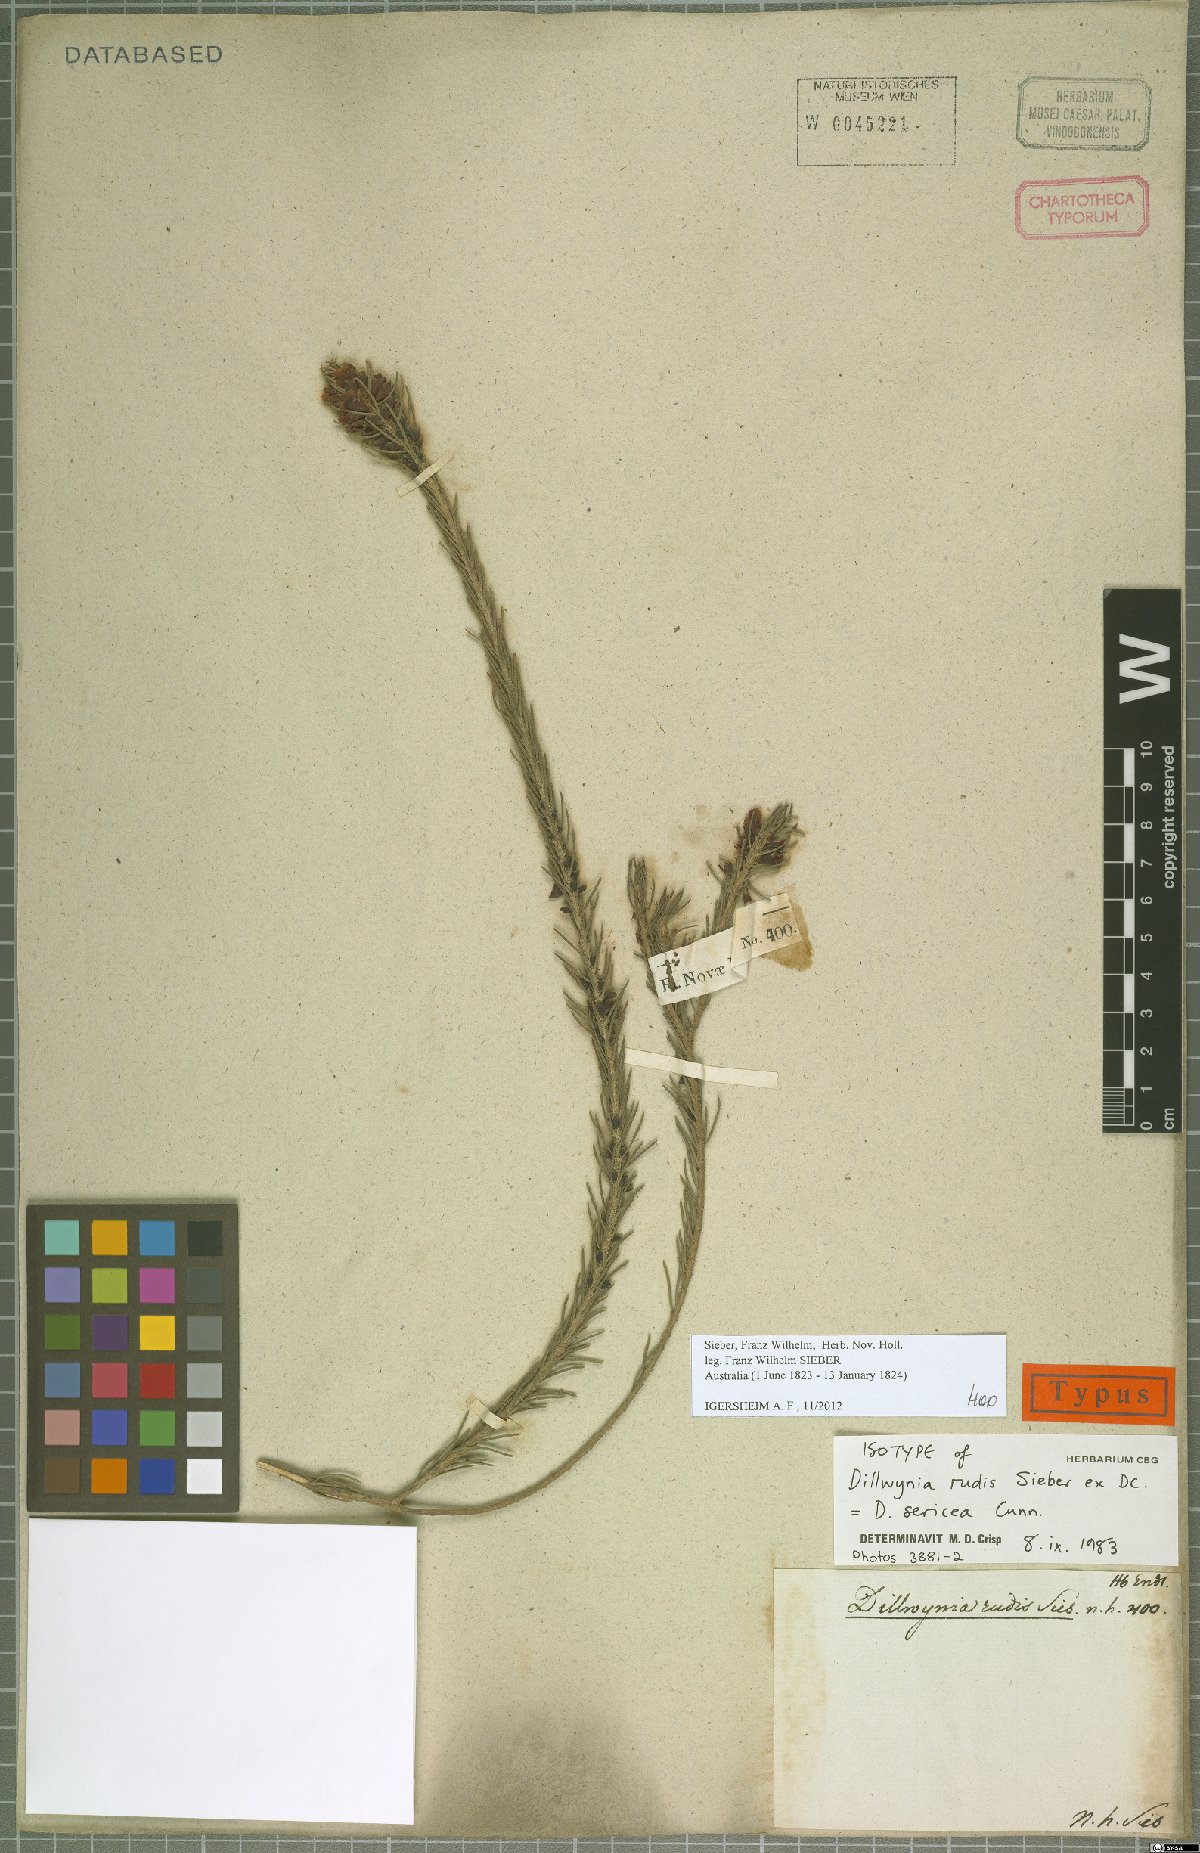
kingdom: Plantae
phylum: Tracheophyta
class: Magnoliopsida
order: Fabales
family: Fabaceae
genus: Dillwynia
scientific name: Dillwynia sericea
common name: Showy parrot-pea
